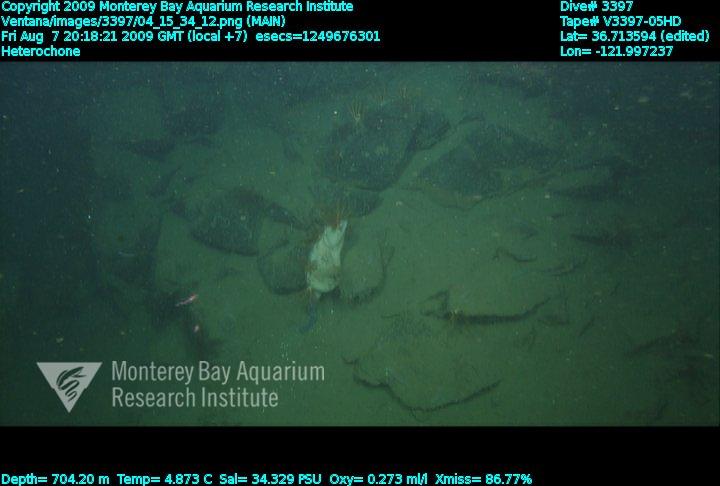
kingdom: Animalia
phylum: Porifera
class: Hexactinellida
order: Sceptrulophora
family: Aphrocallistidae
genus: Heterochone
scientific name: Heterochone
